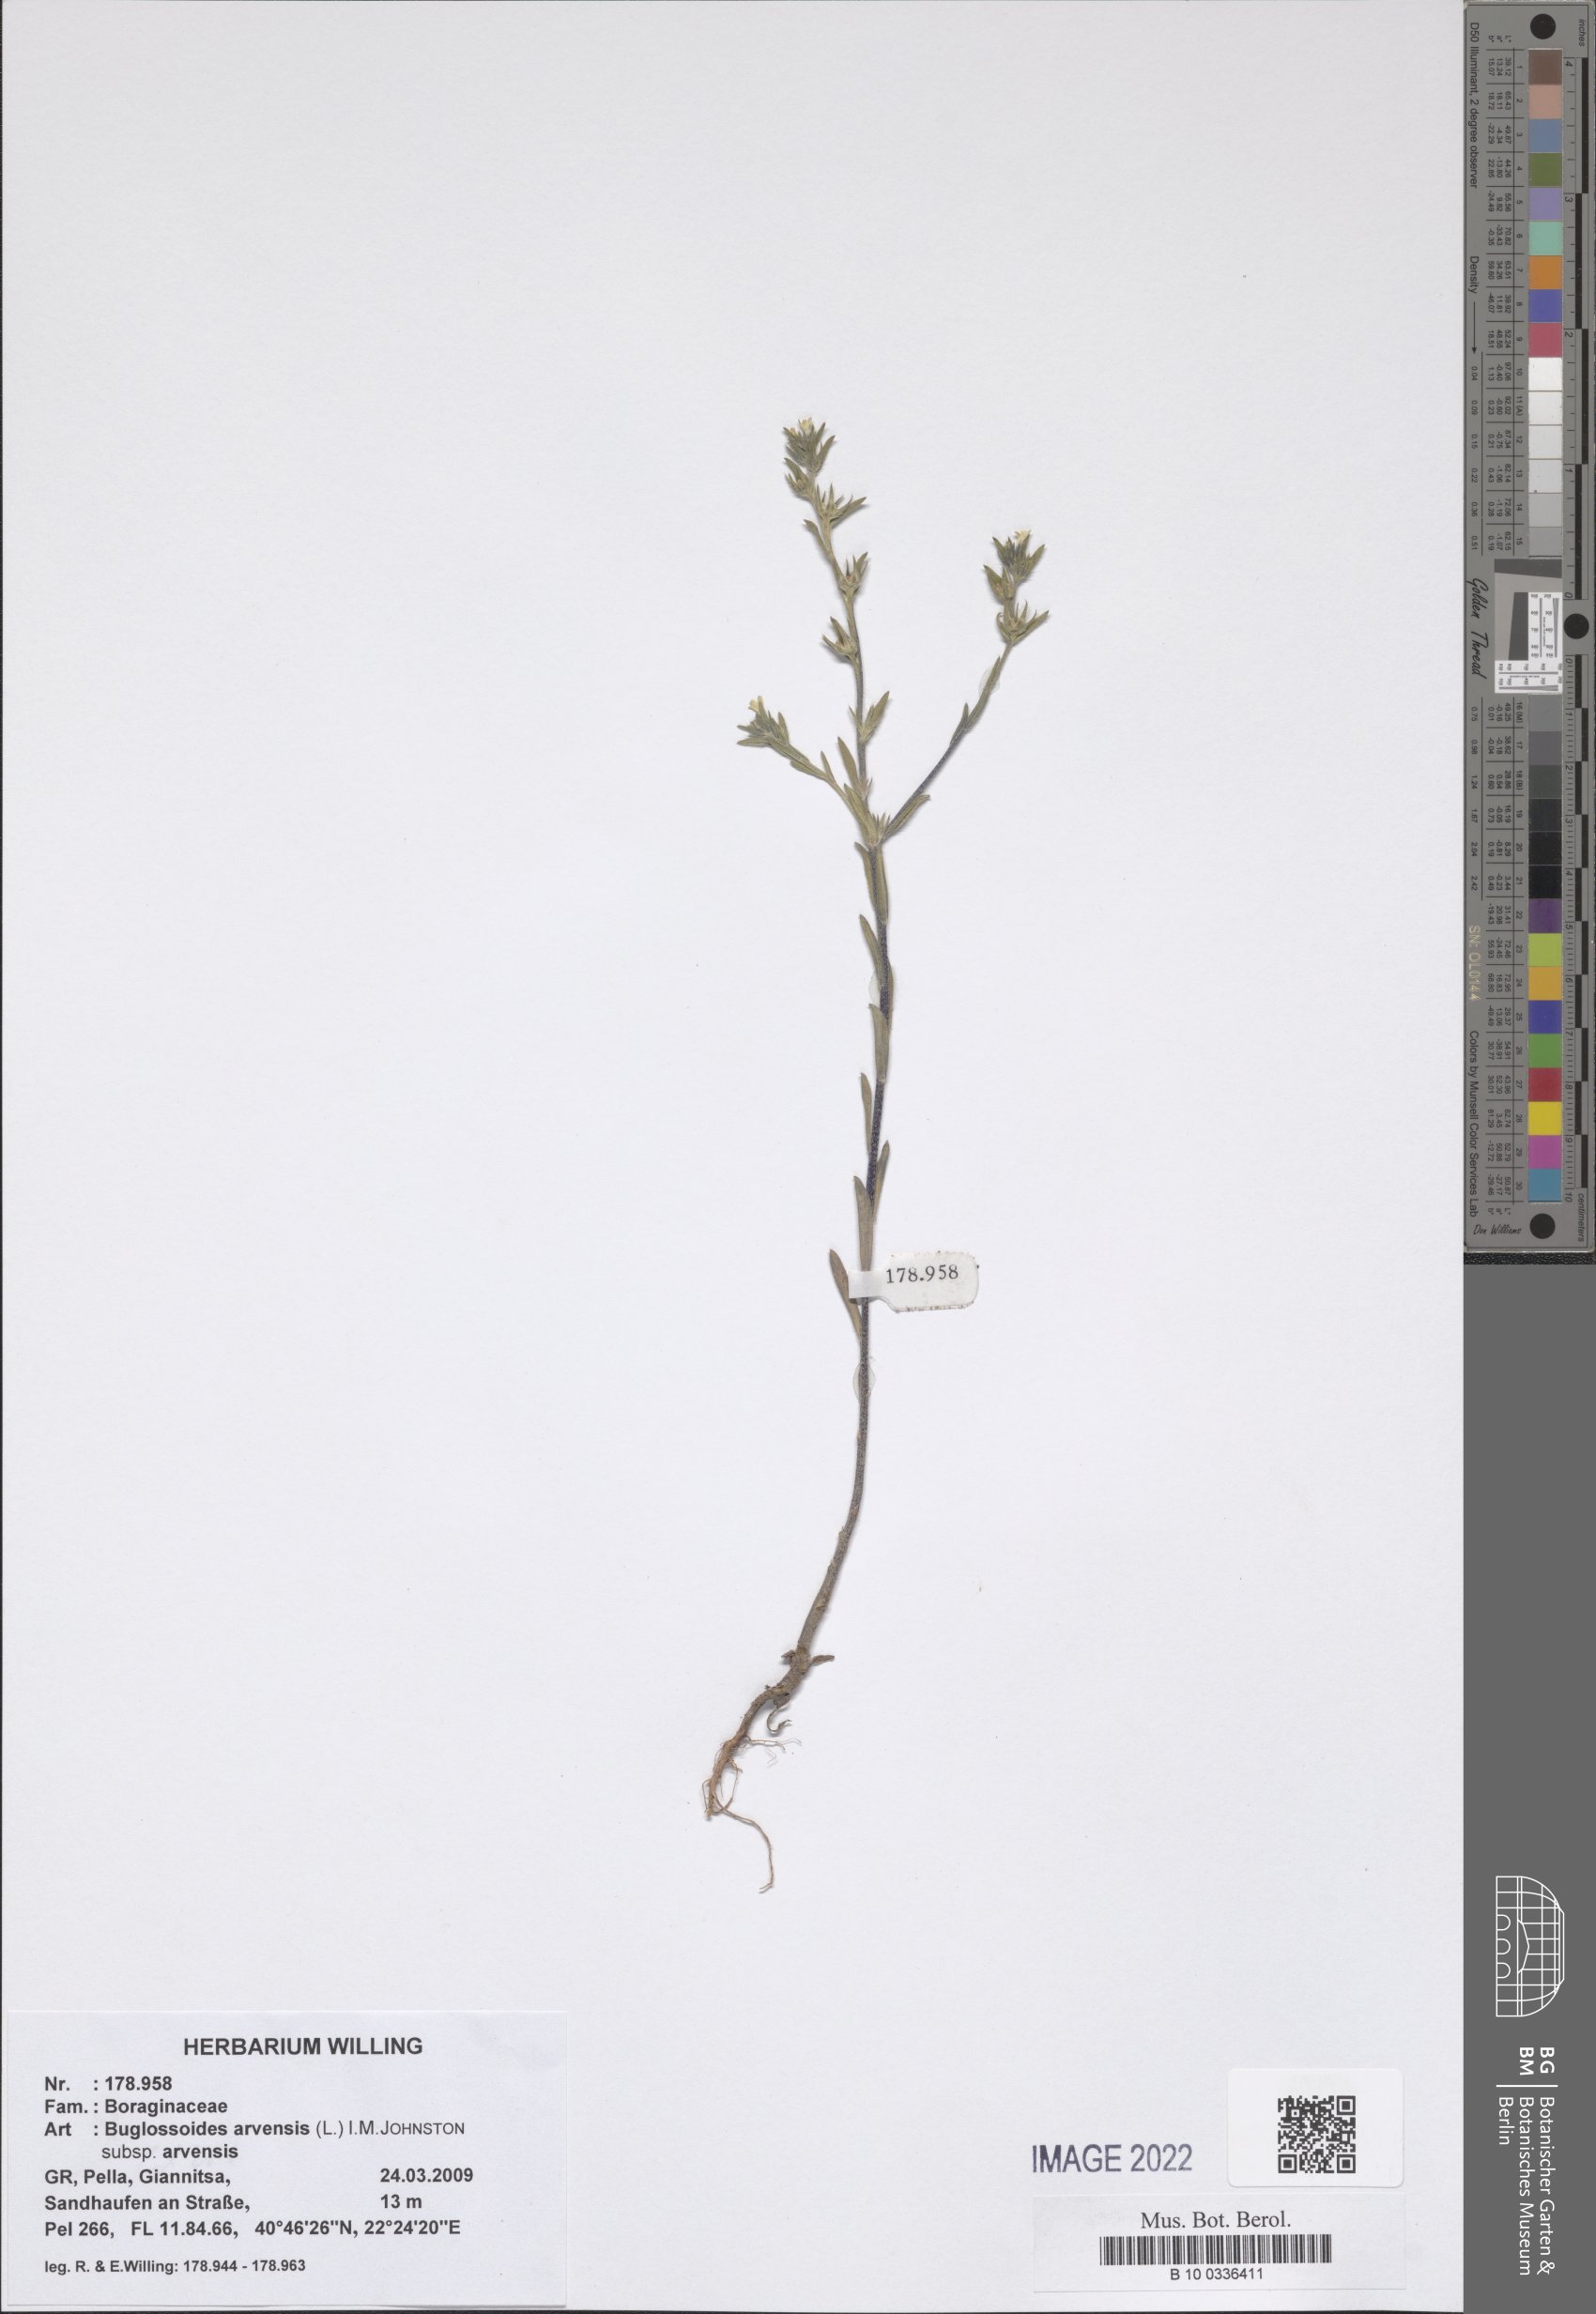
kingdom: Plantae
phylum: Tracheophyta
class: Magnoliopsida
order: Boraginales
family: Boraginaceae
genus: Buglossoides
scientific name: Buglossoides arvensis
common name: Corn gromwell
